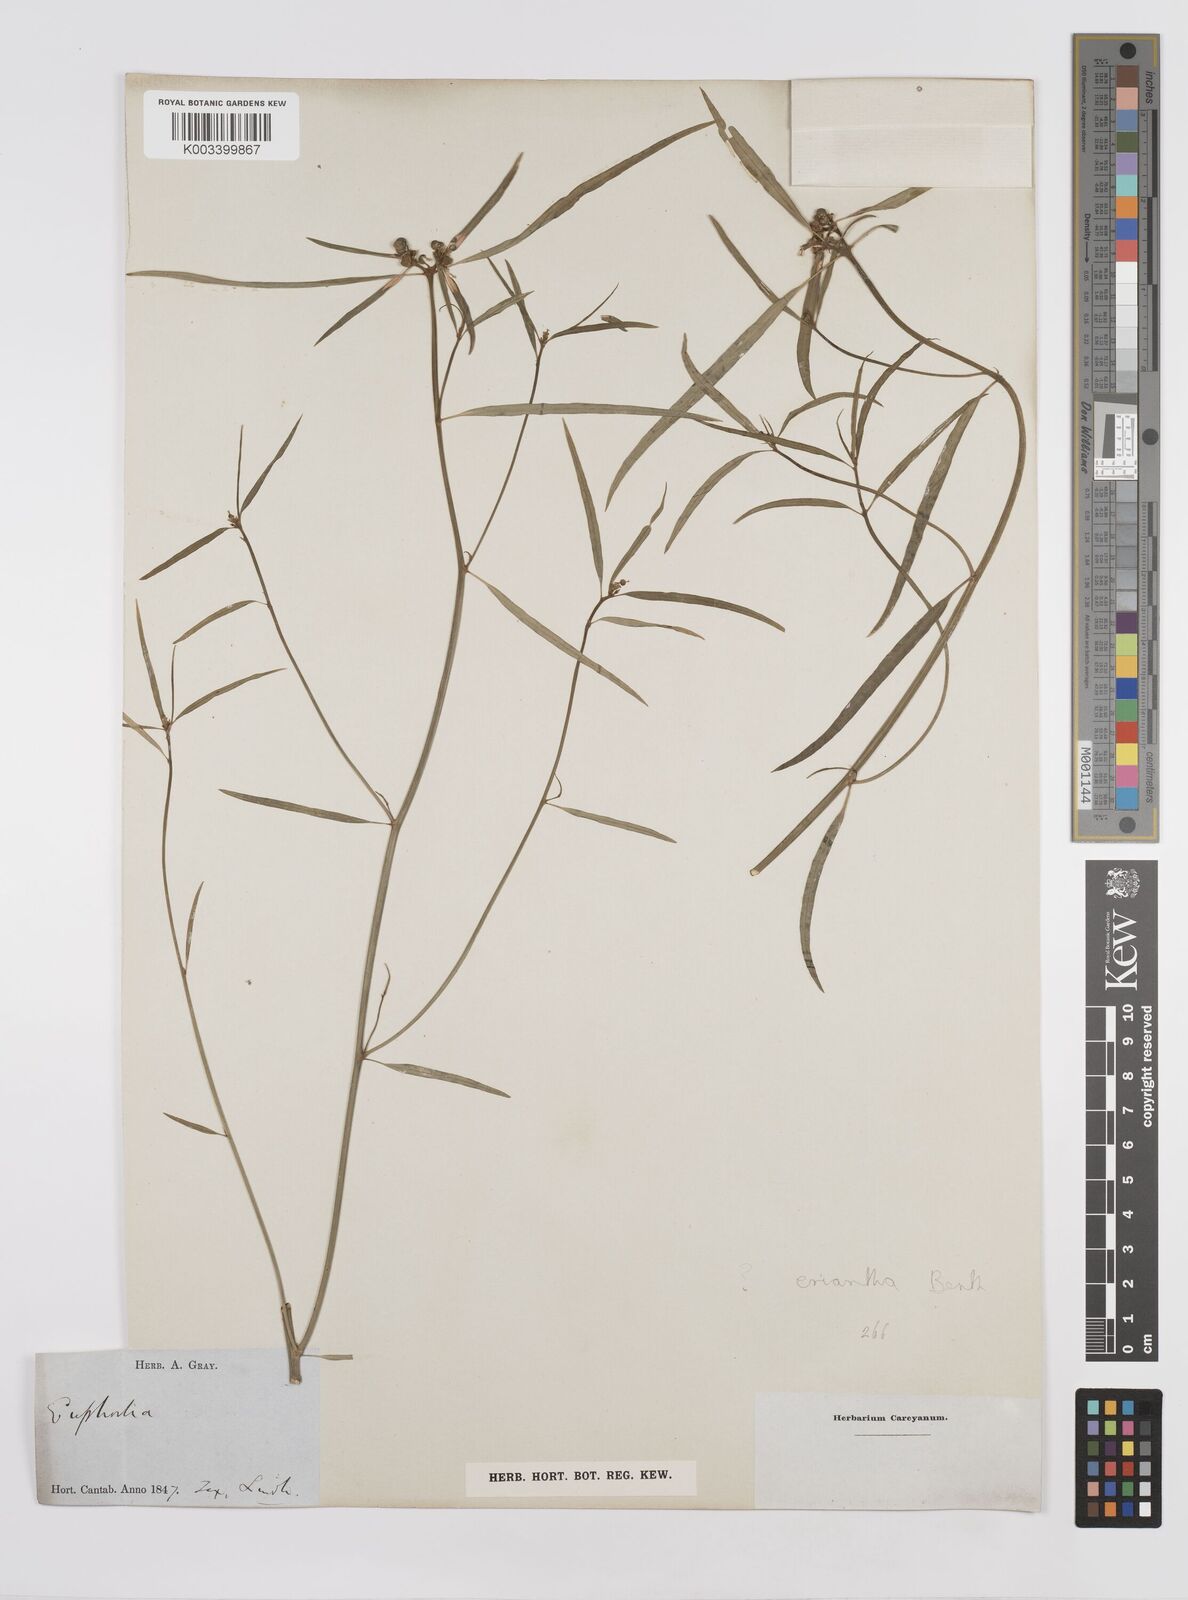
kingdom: Plantae
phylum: Tracheophyta
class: Magnoliopsida
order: Malpighiales
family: Euphorbiaceae
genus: Euphorbia
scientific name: Euphorbia eriantha
